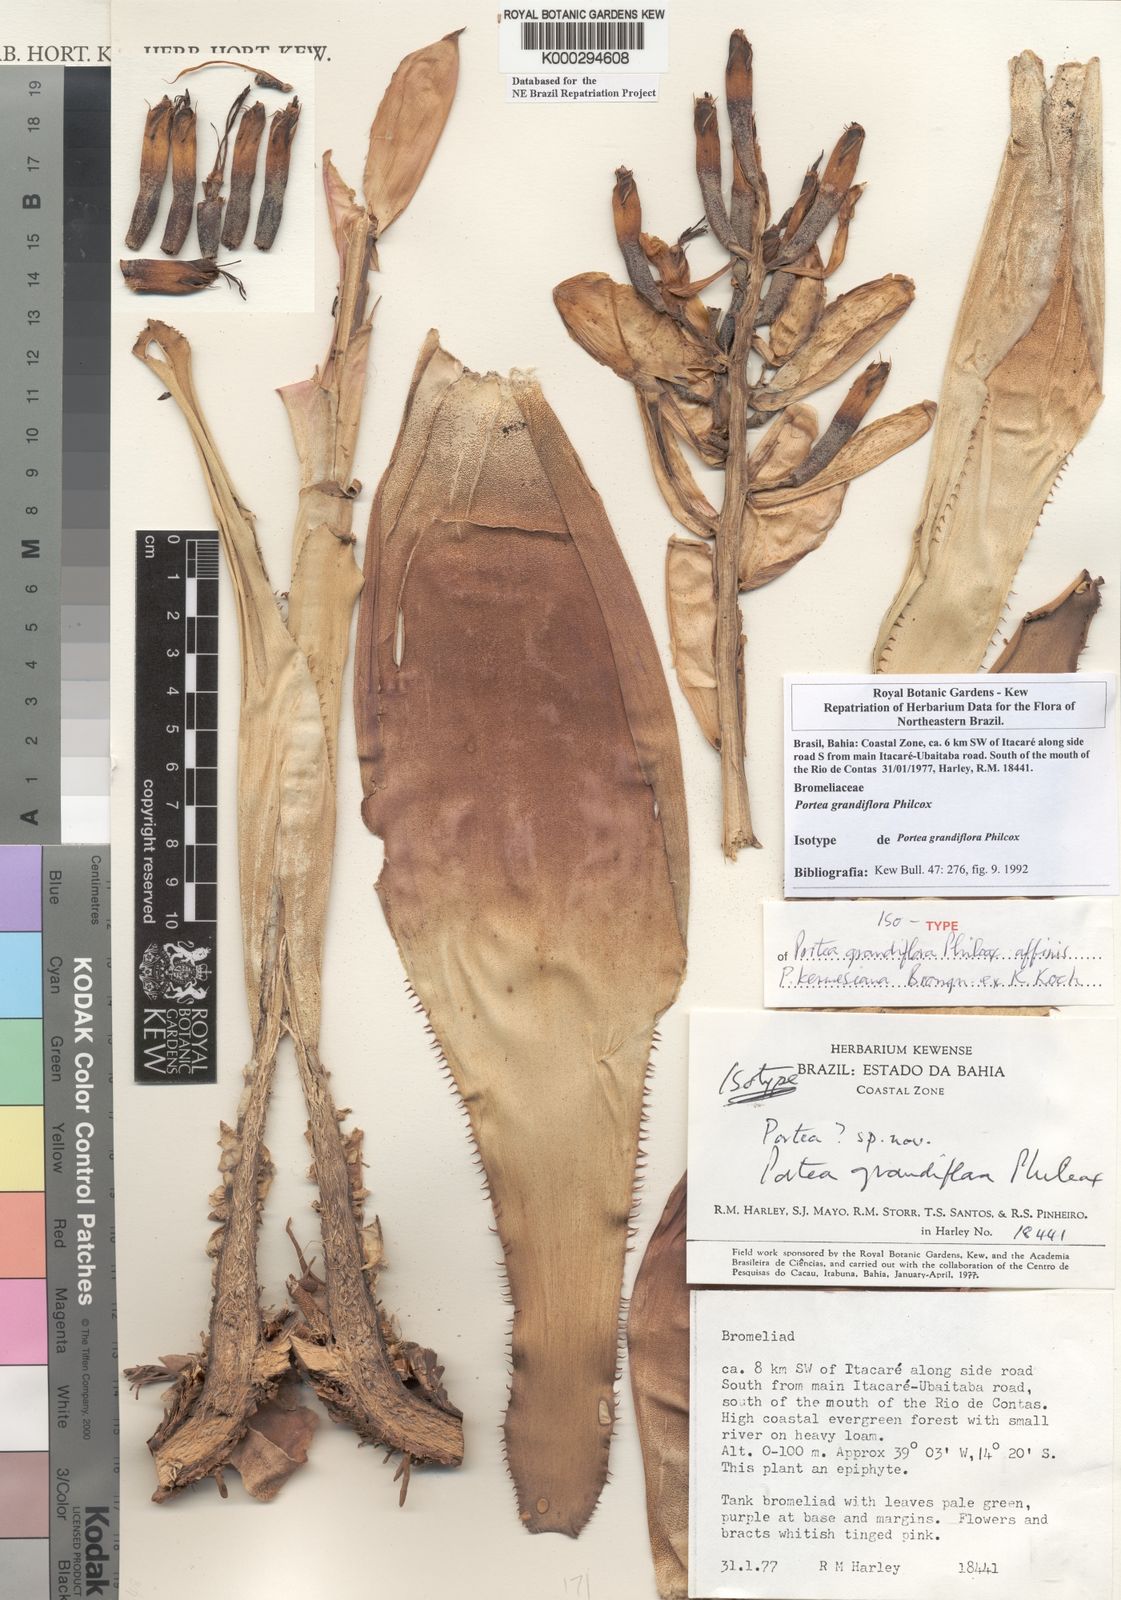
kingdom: Plantae
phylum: Tracheophyta
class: Liliopsida
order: Poales
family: Bromeliaceae
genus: Portea
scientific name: Portea grandiflora
